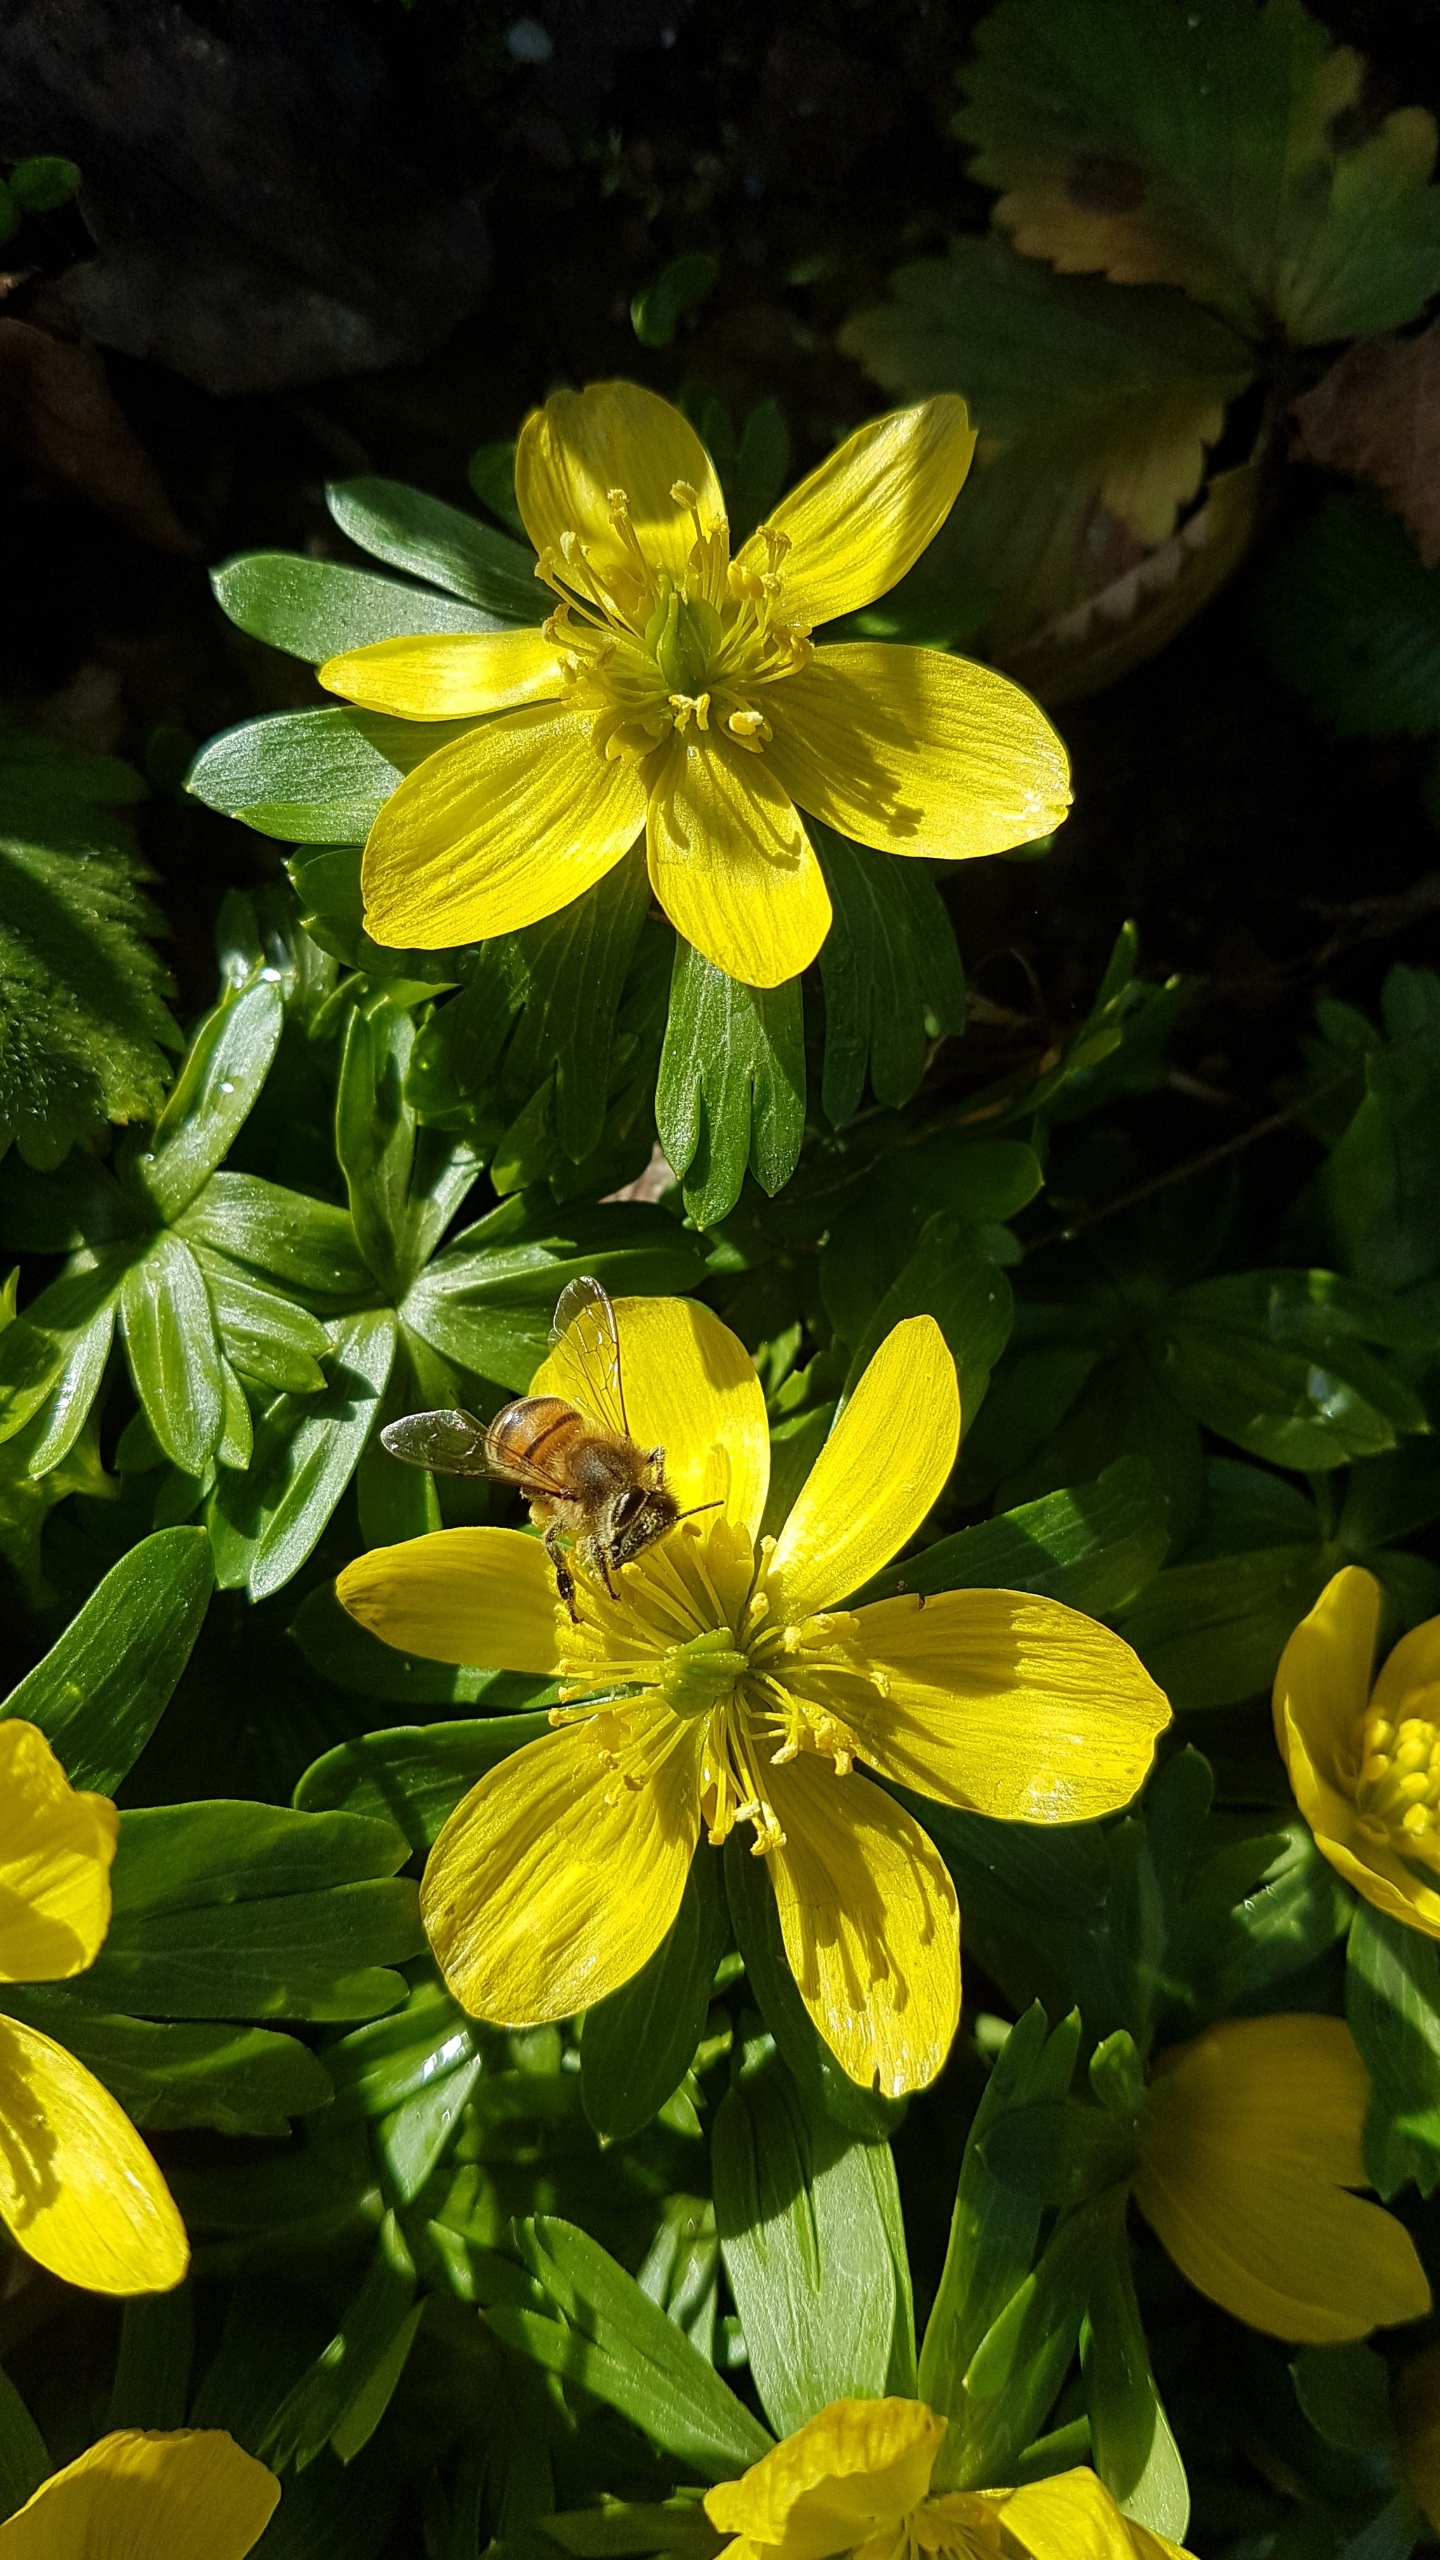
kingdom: Animalia
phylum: Arthropoda
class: Insecta
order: Hymenoptera
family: Apidae
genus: Apis
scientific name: Apis mellifera
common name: Honningbi
